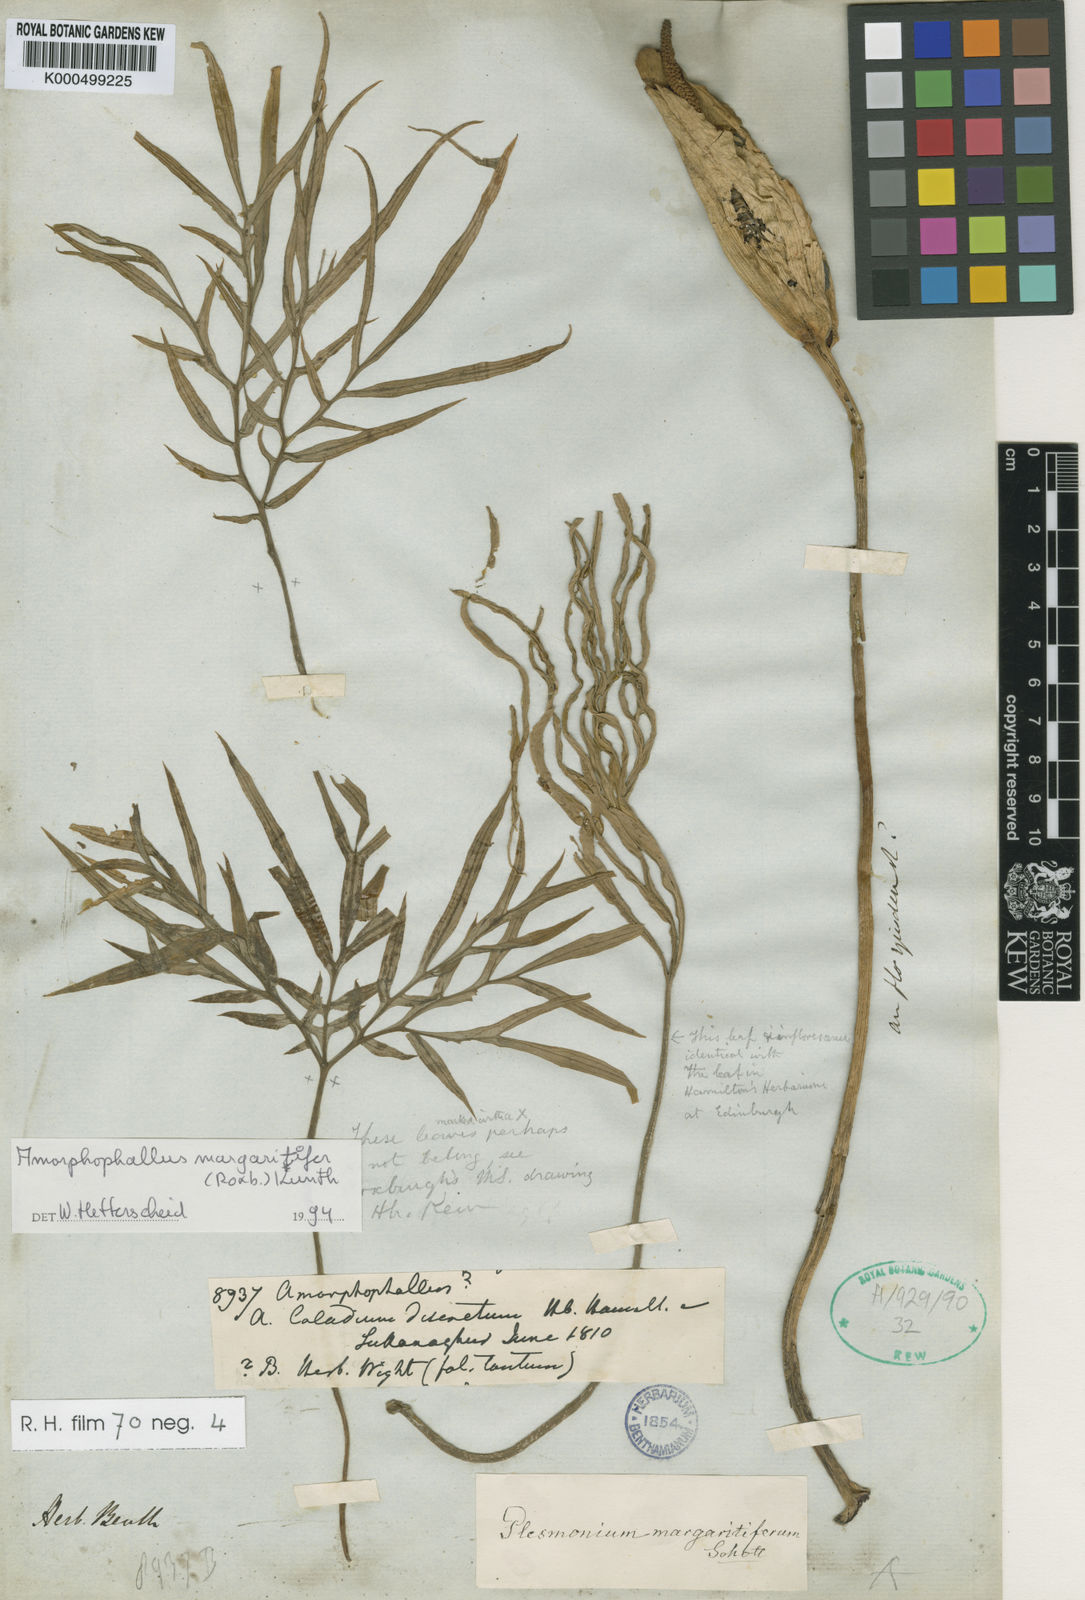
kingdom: Plantae
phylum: Tracheophyta
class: Liliopsida
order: Alismatales
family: Araceae
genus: Amorphophallus
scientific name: Amorphophallus margaritifer
